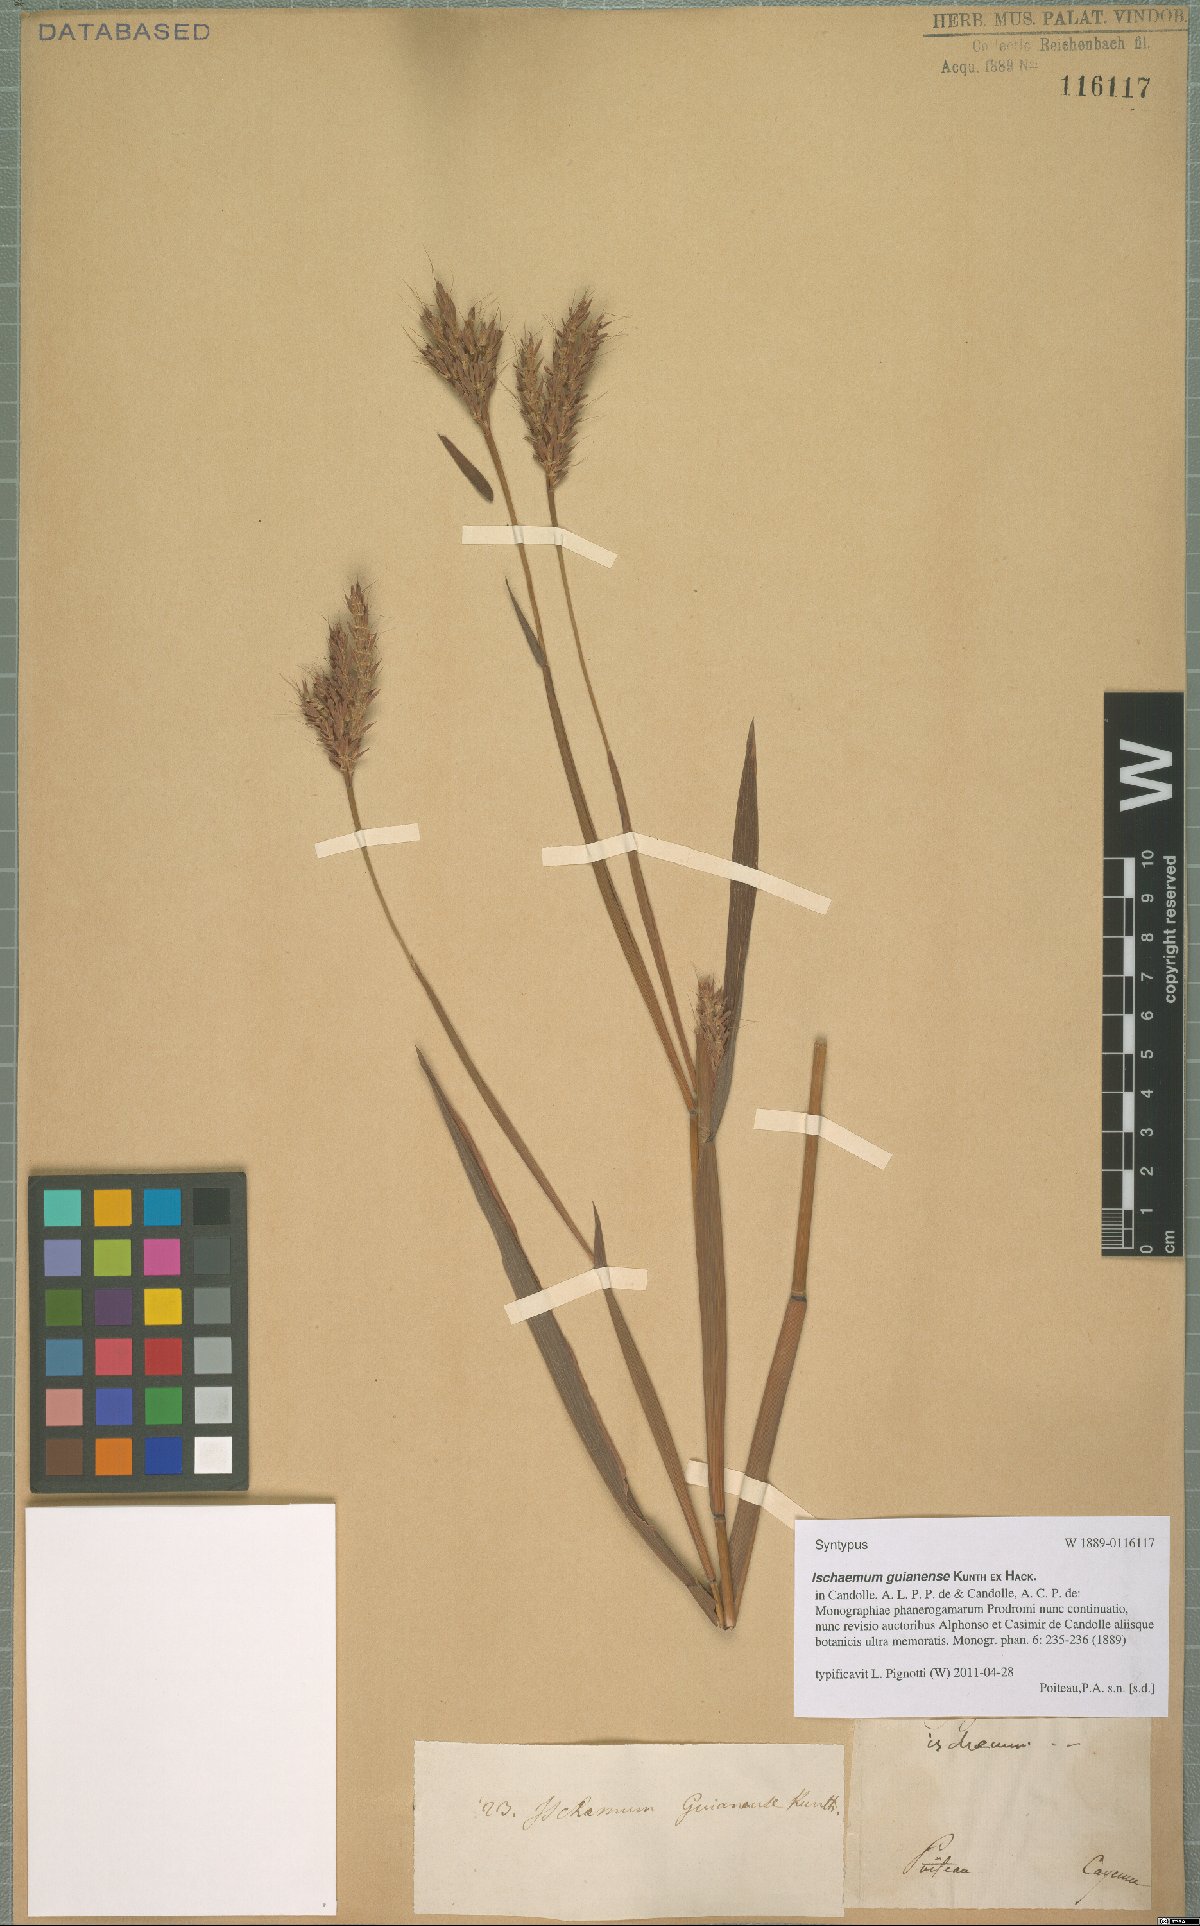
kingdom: Plantae
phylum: Tracheophyta
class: Liliopsida
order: Poales
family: Poaceae
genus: Ischaemum
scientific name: Ischaemum guianense
